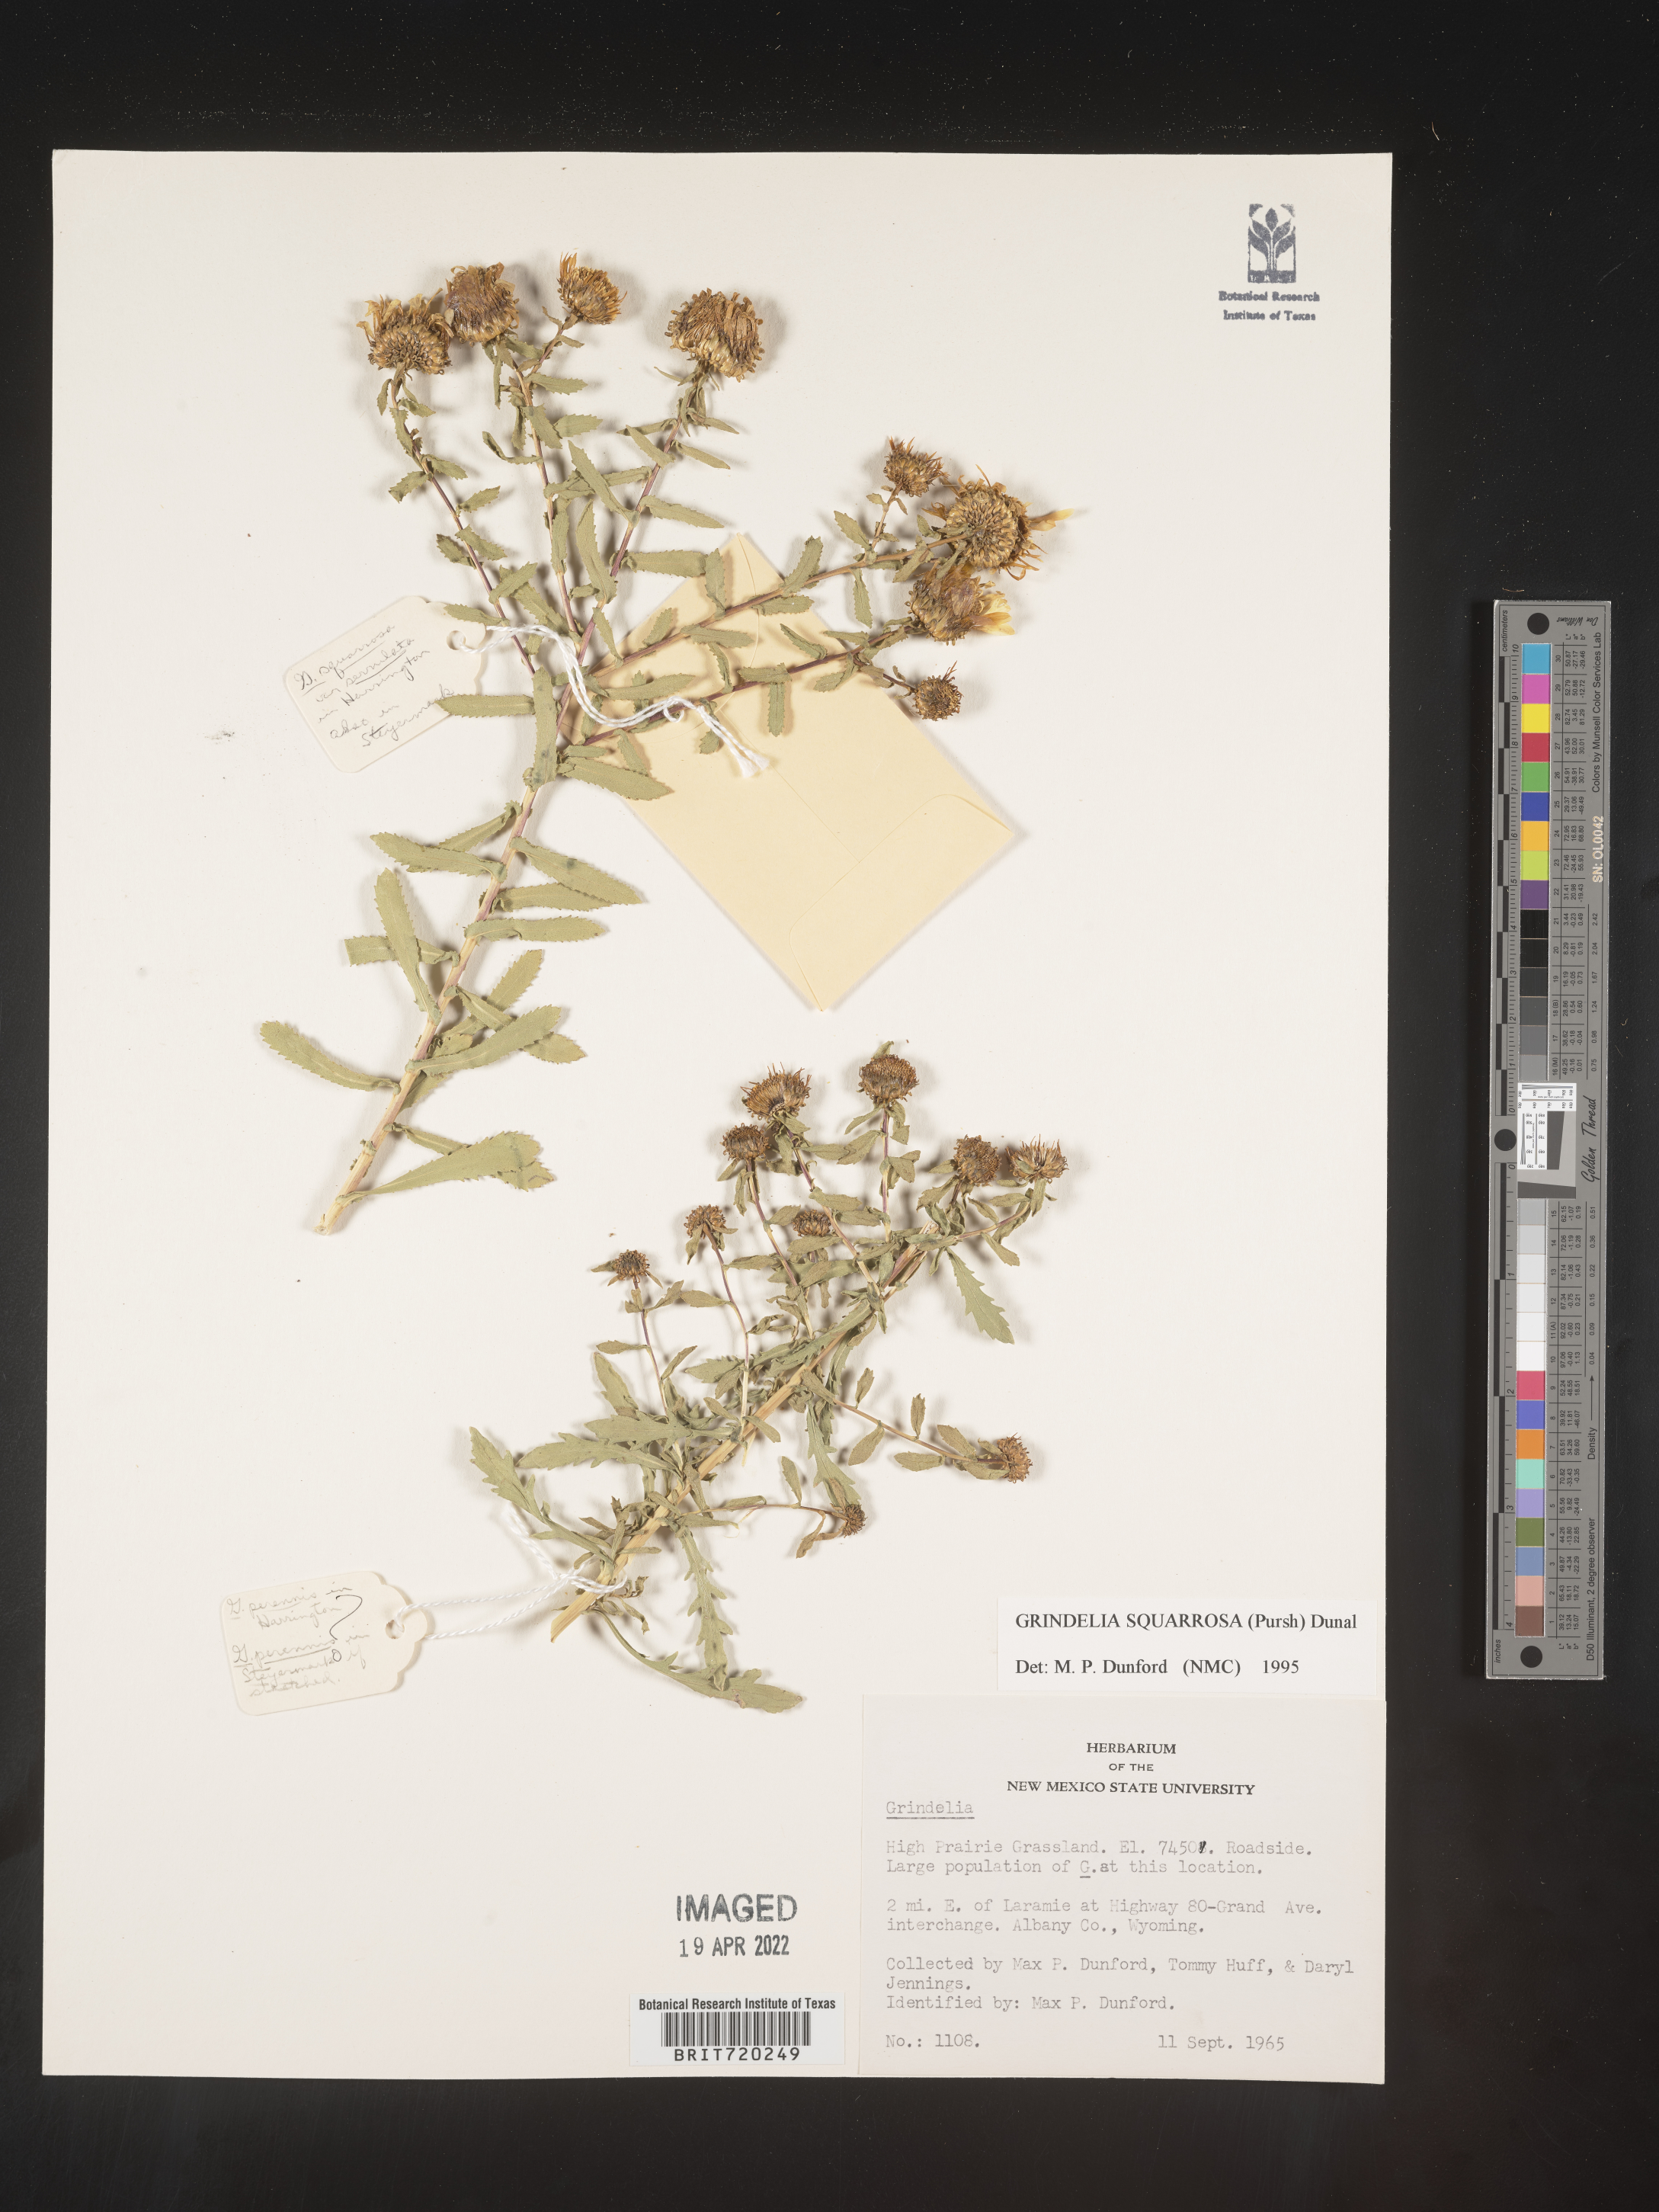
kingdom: Plantae
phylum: Tracheophyta
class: Magnoliopsida
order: Asterales
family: Asteraceae
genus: Grindelia
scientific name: Grindelia squarrosa
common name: Curly-cup gumweed
